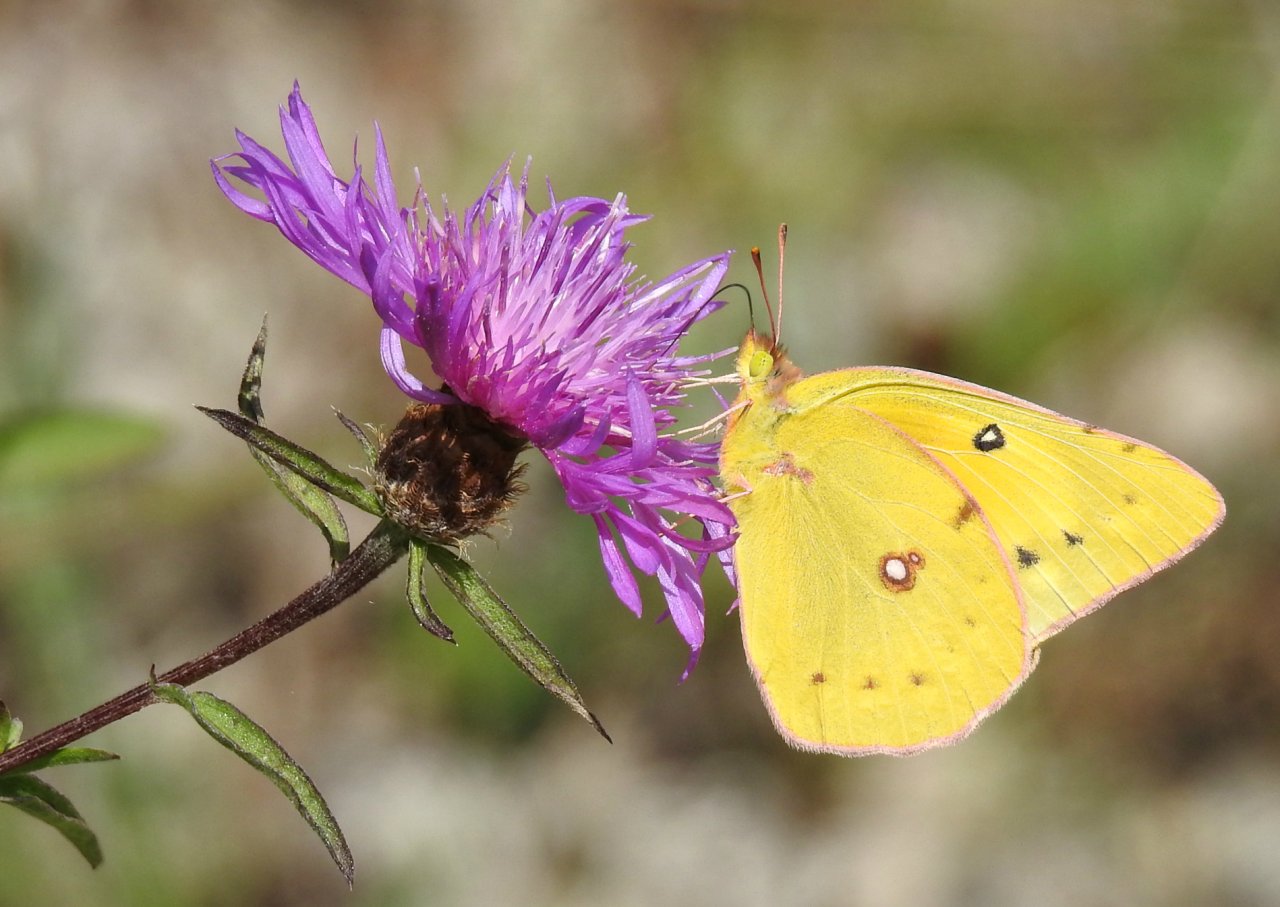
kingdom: Animalia
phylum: Arthropoda
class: Insecta
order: Lepidoptera
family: Pieridae
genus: Colias
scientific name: Colias eurytheme
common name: Orange Sulphur
